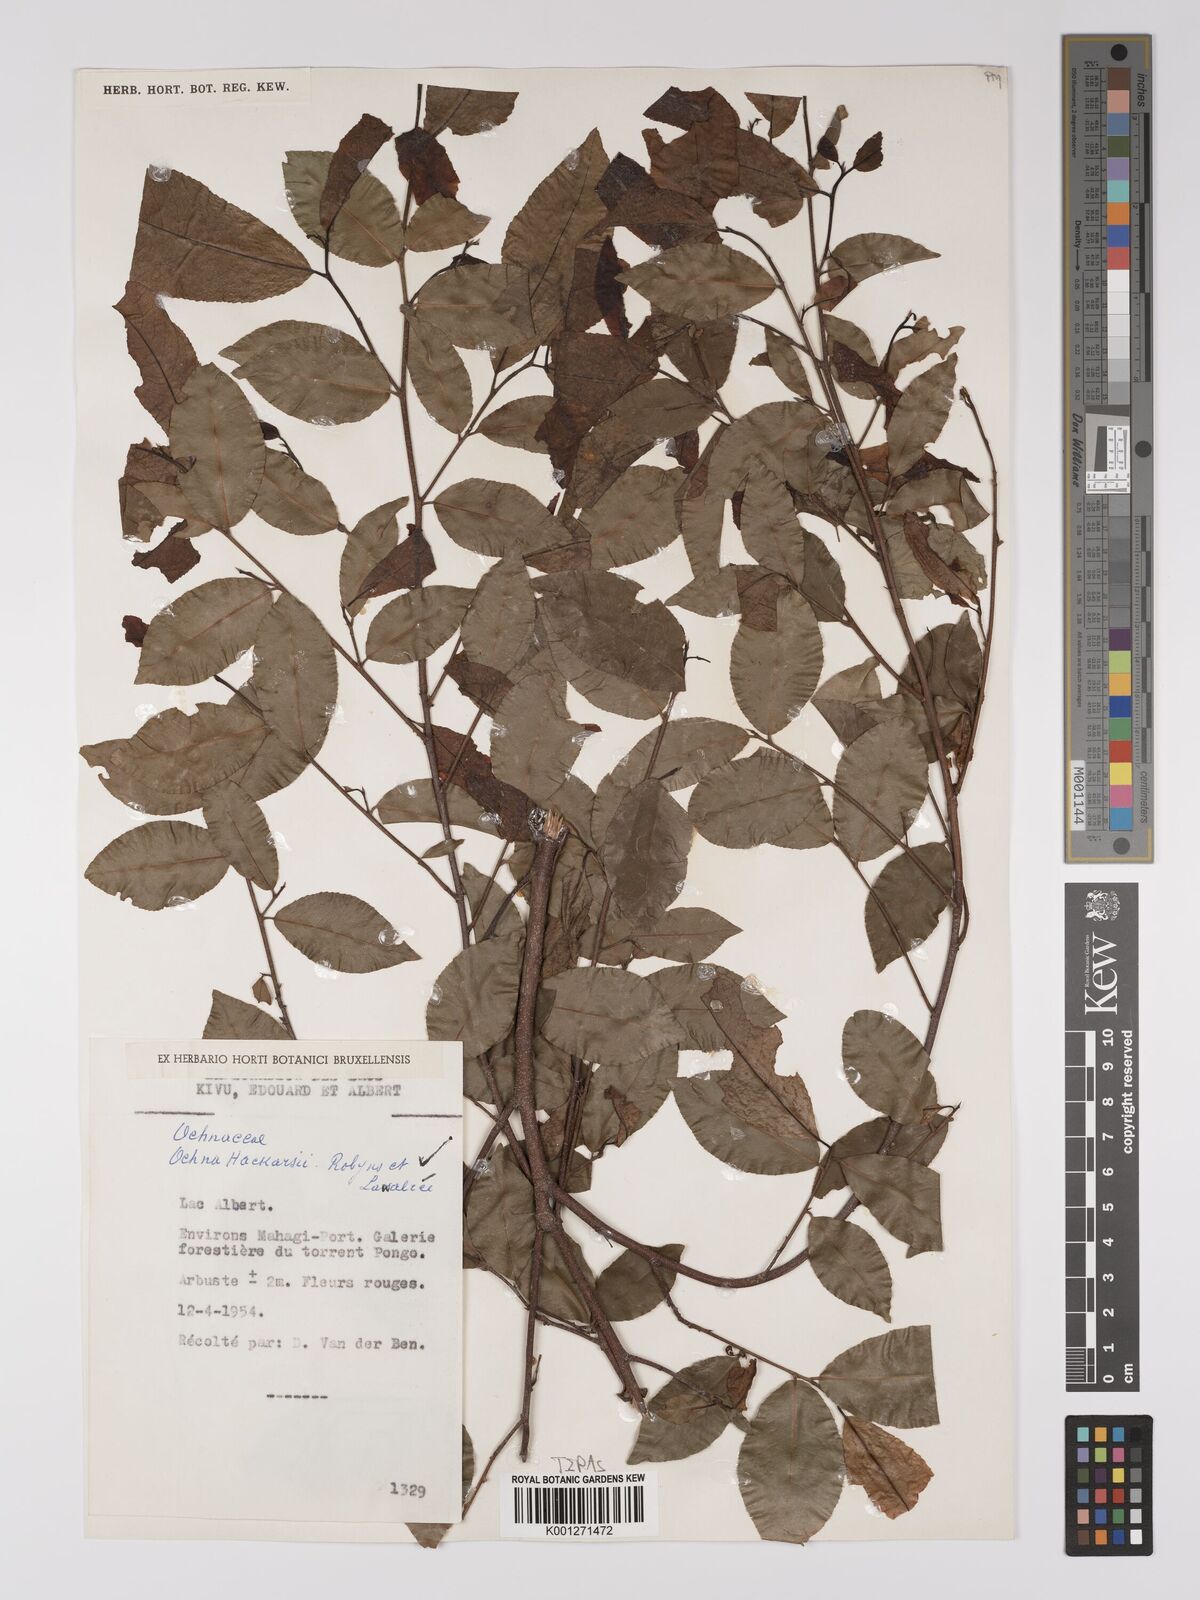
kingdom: Plantae
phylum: Tracheophyta
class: Magnoliopsida
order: Malpighiales
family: Ochnaceae
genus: Ochna
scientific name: Ochna hackarsii
